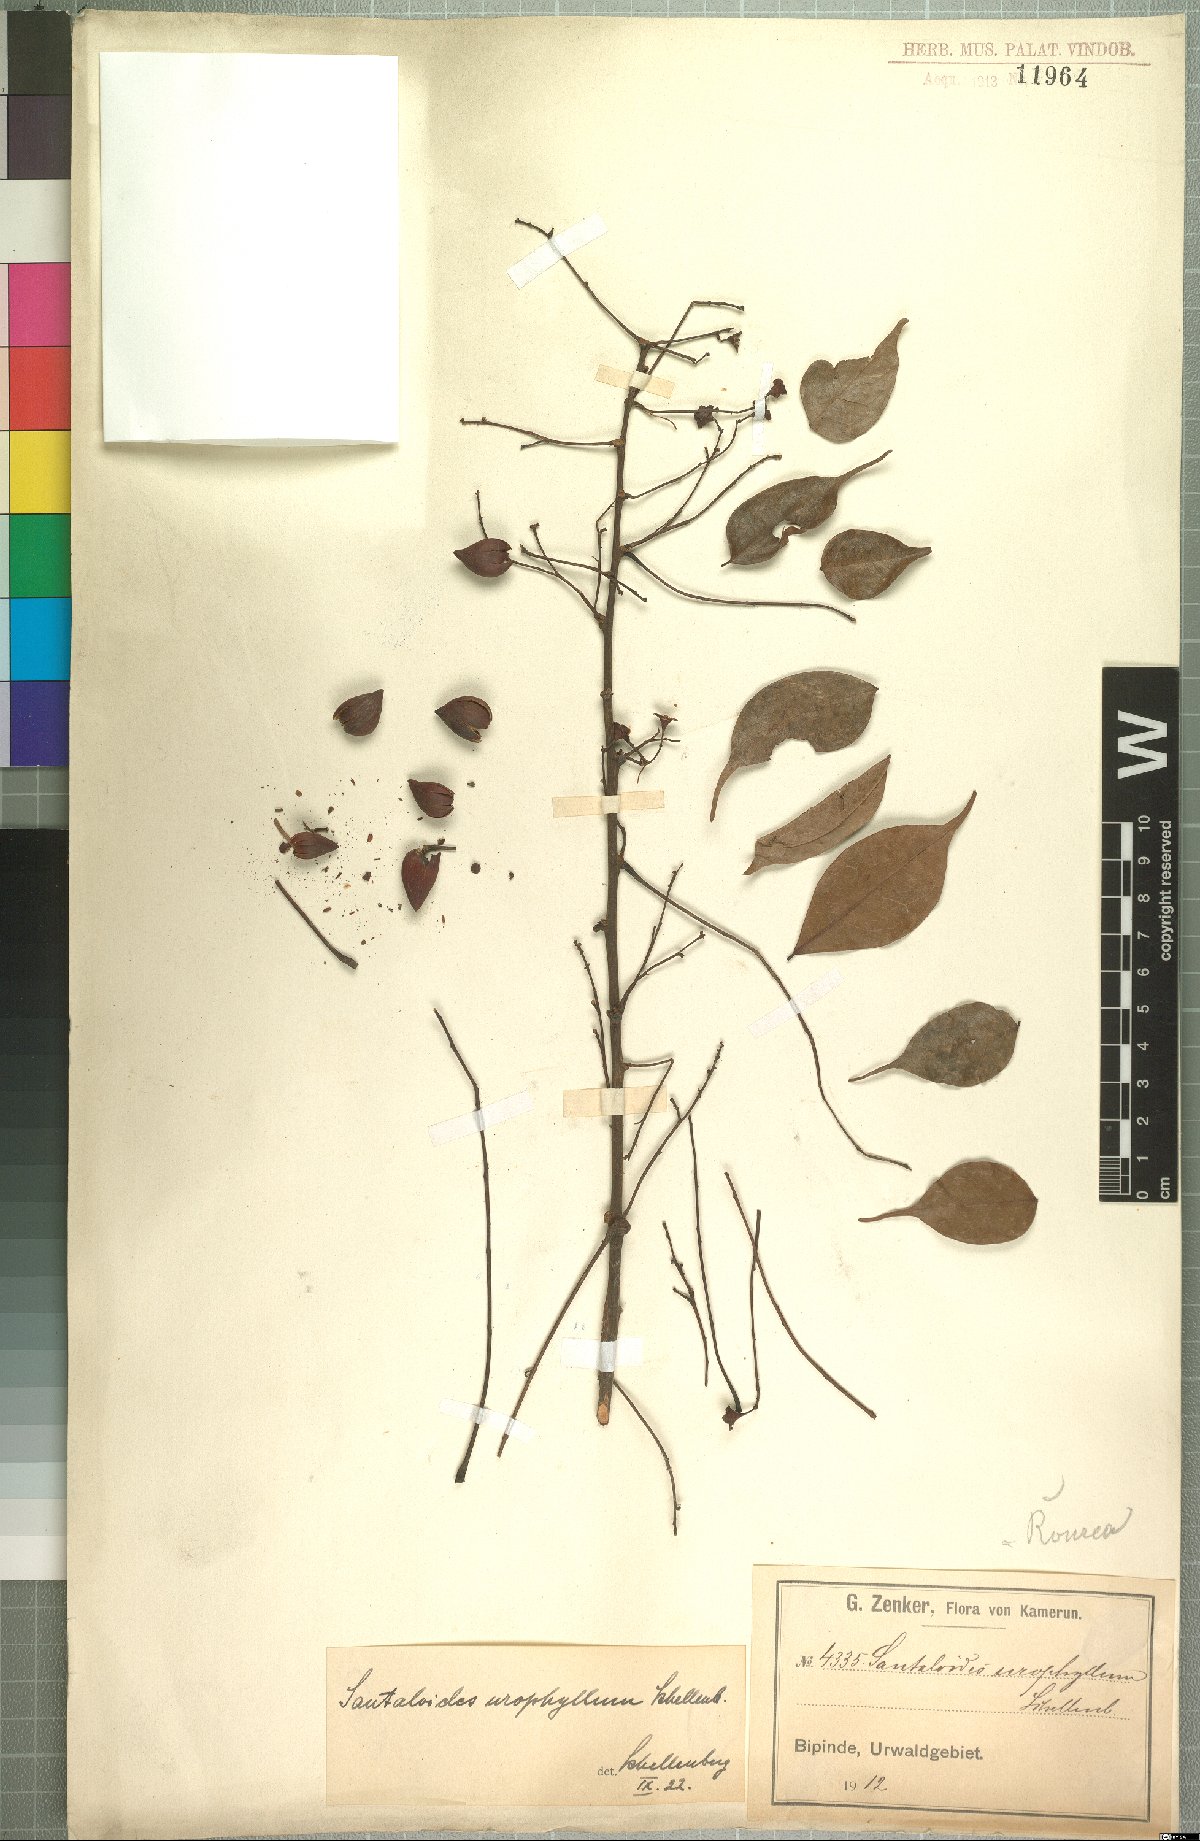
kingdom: Plantae
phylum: Tracheophyta
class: Magnoliopsida
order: Oxalidales
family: Connaraceae
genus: Rourea
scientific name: Rourea minor
